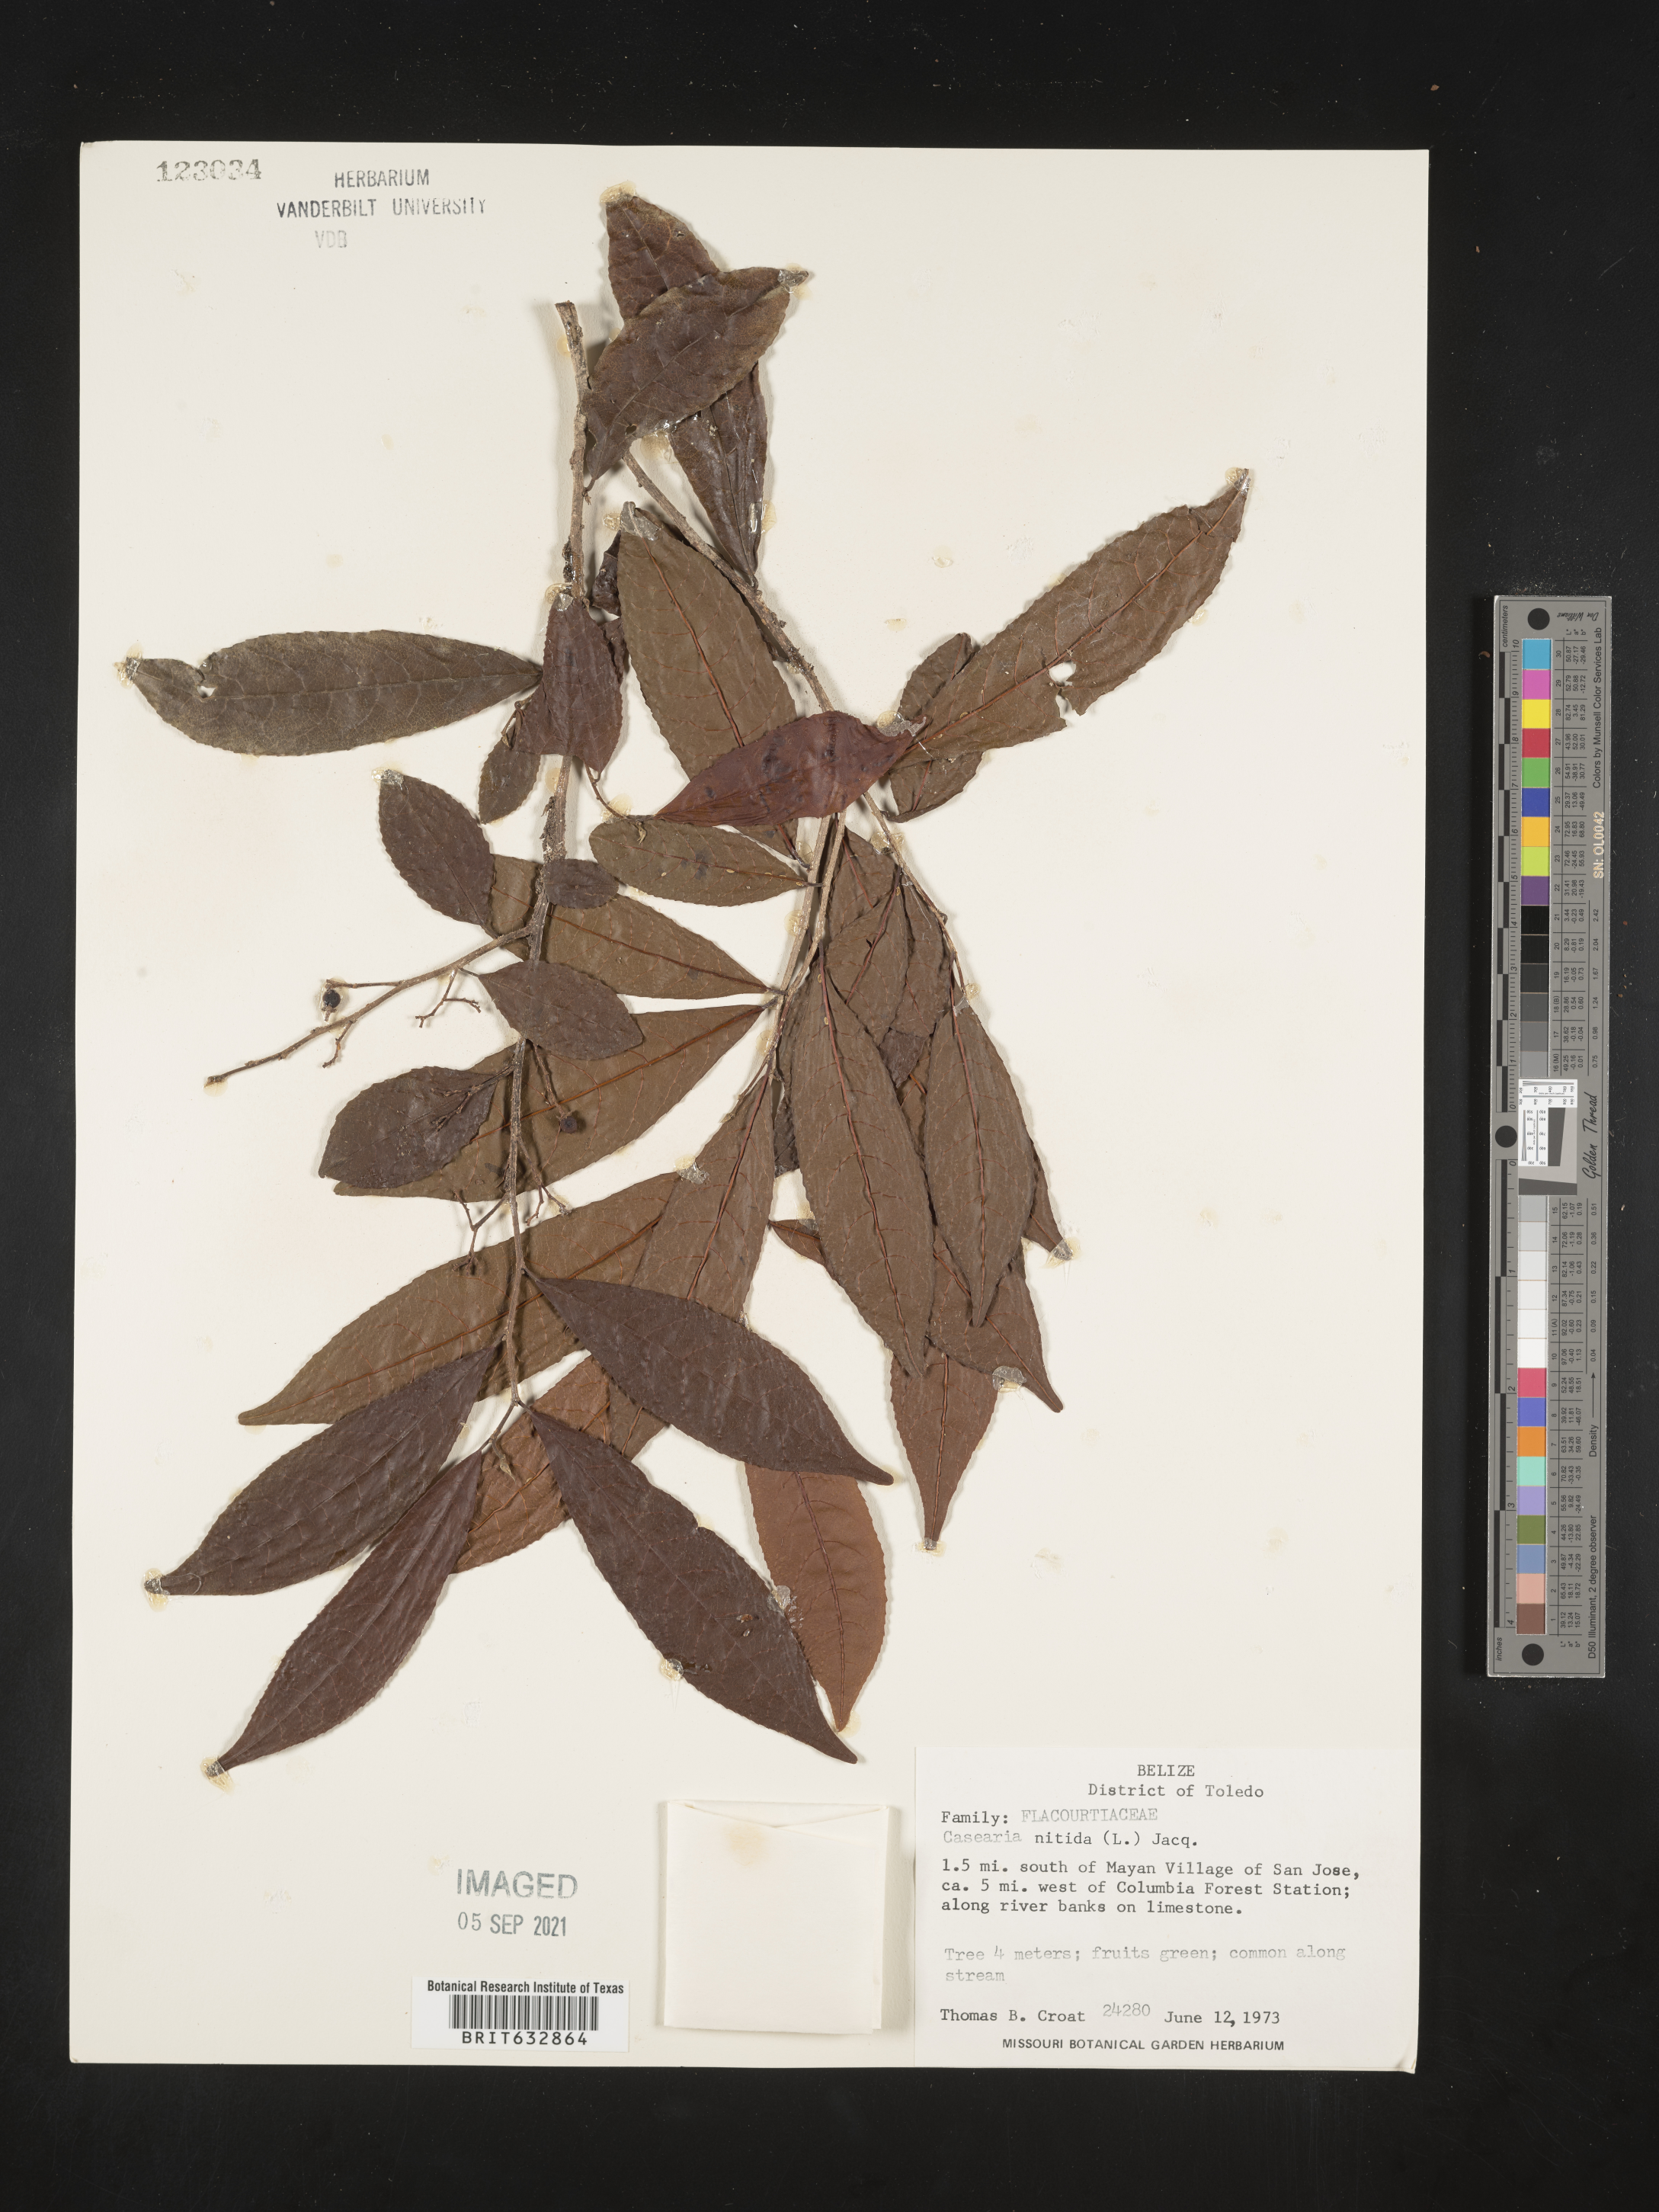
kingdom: Plantae
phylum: Tracheophyta
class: Magnoliopsida
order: Malpighiales
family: Salicaceae
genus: Casearia
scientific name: Casearia
